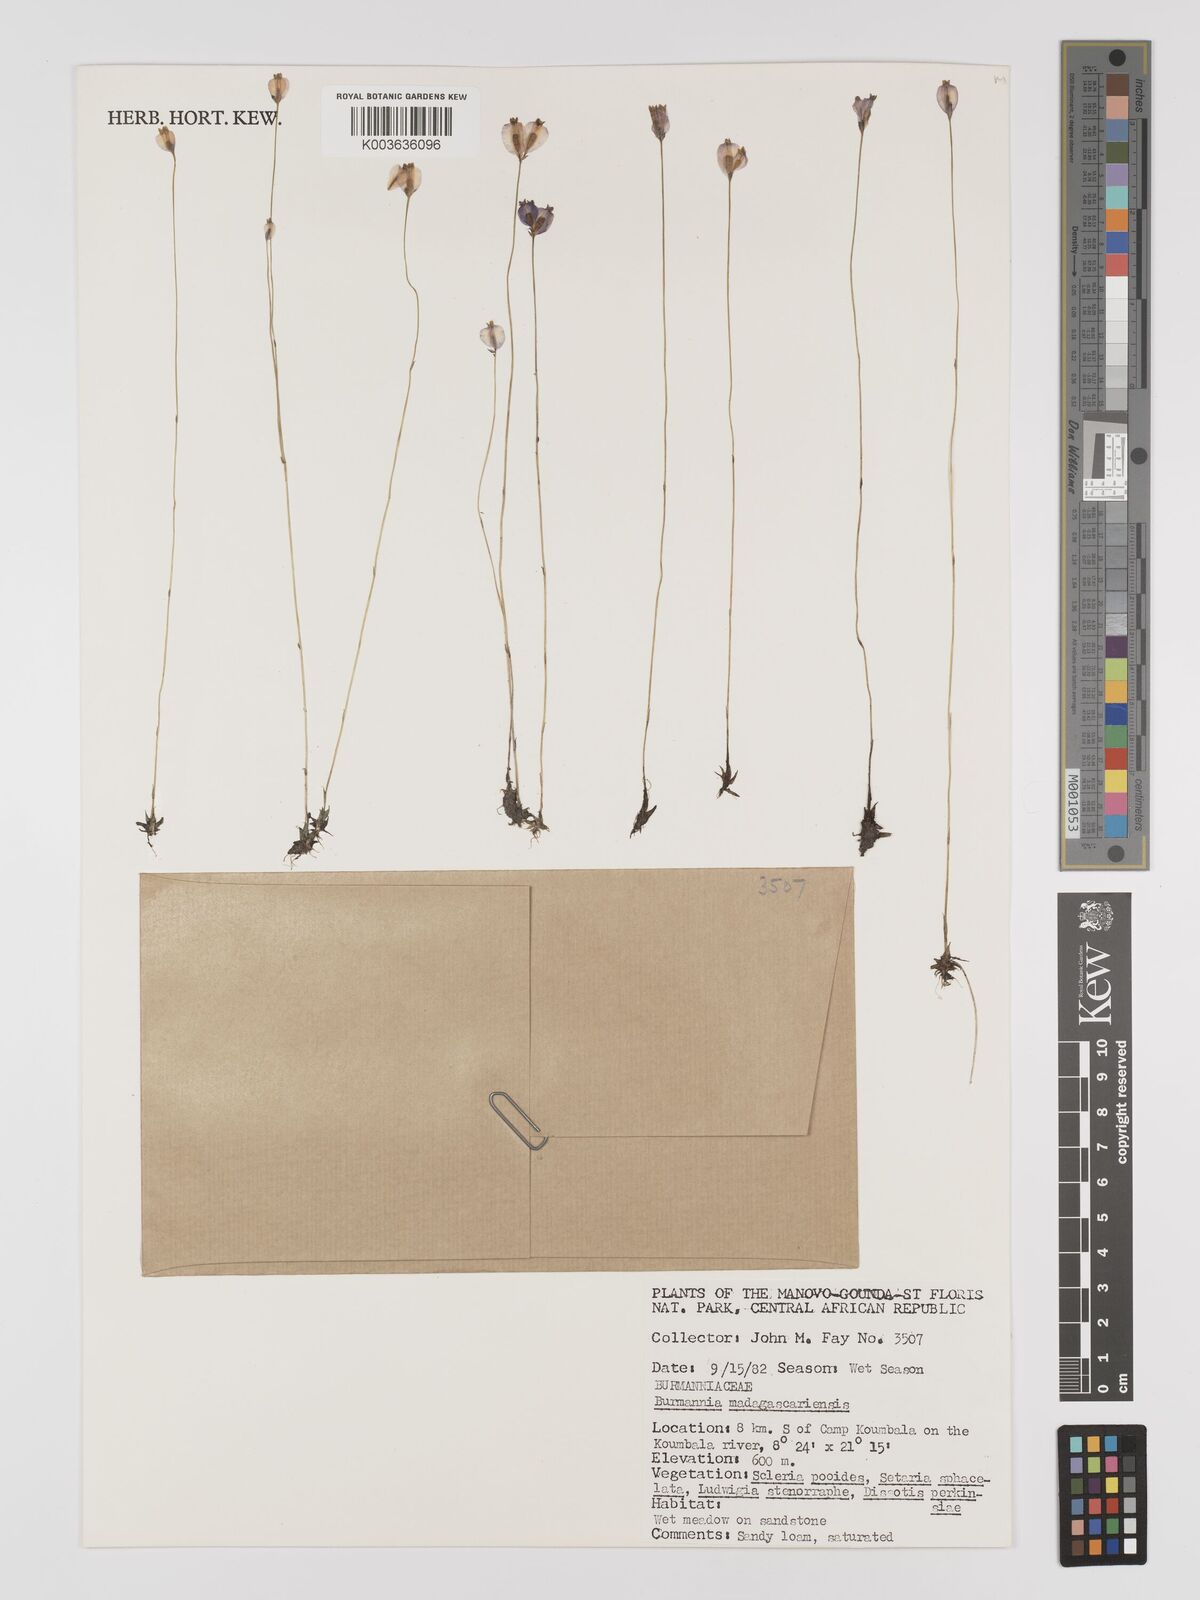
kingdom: Plantae
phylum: Tracheophyta
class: Liliopsida
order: Dioscoreales
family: Burmanniaceae
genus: Burmannia
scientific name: Burmannia madagascariensis
